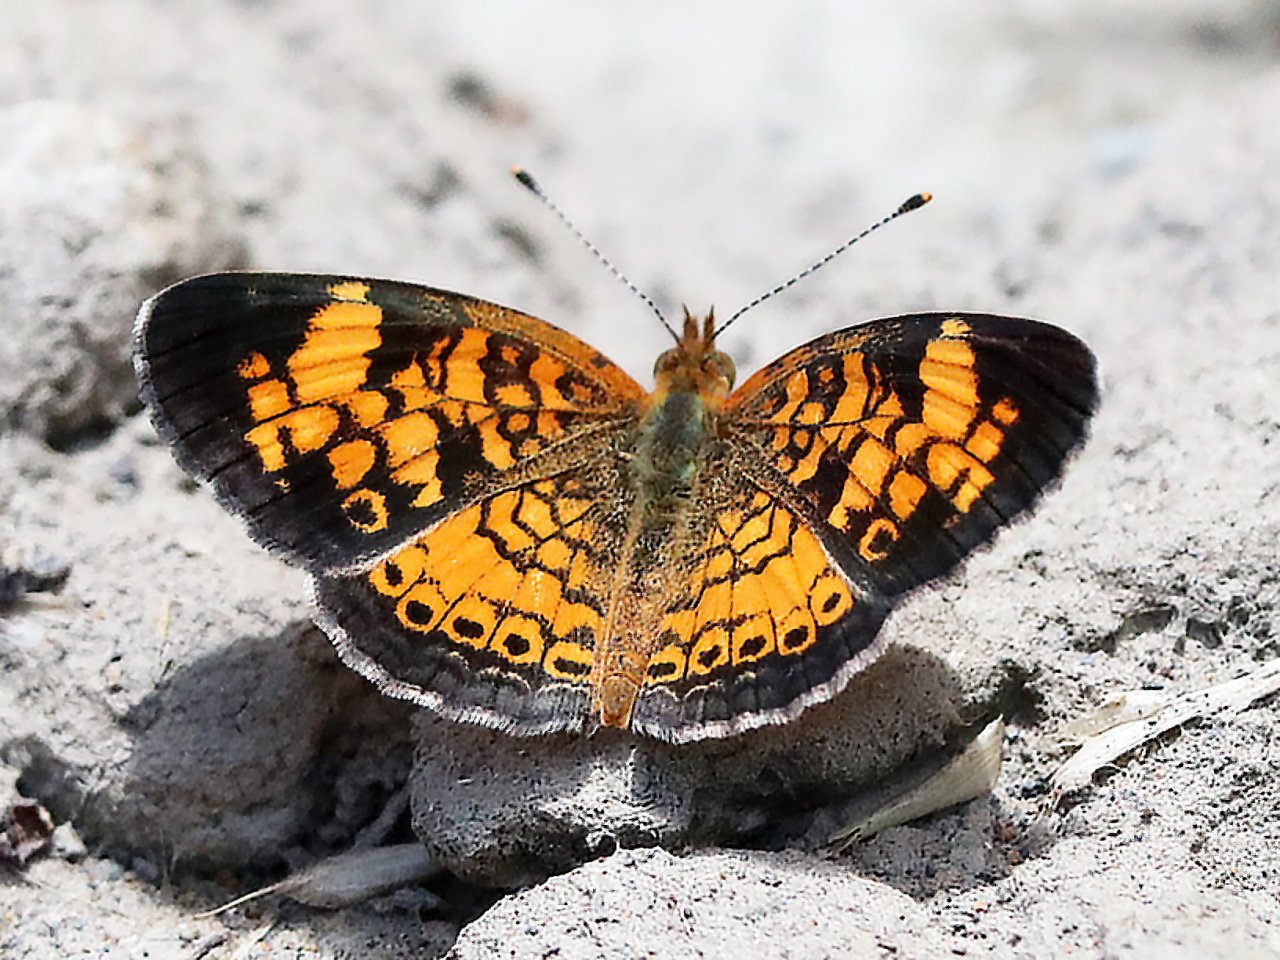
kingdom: Animalia
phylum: Arthropoda
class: Insecta
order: Lepidoptera
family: Nymphalidae
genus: Phyciodes
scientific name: Phyciodes tharos
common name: Pearl Crescent
